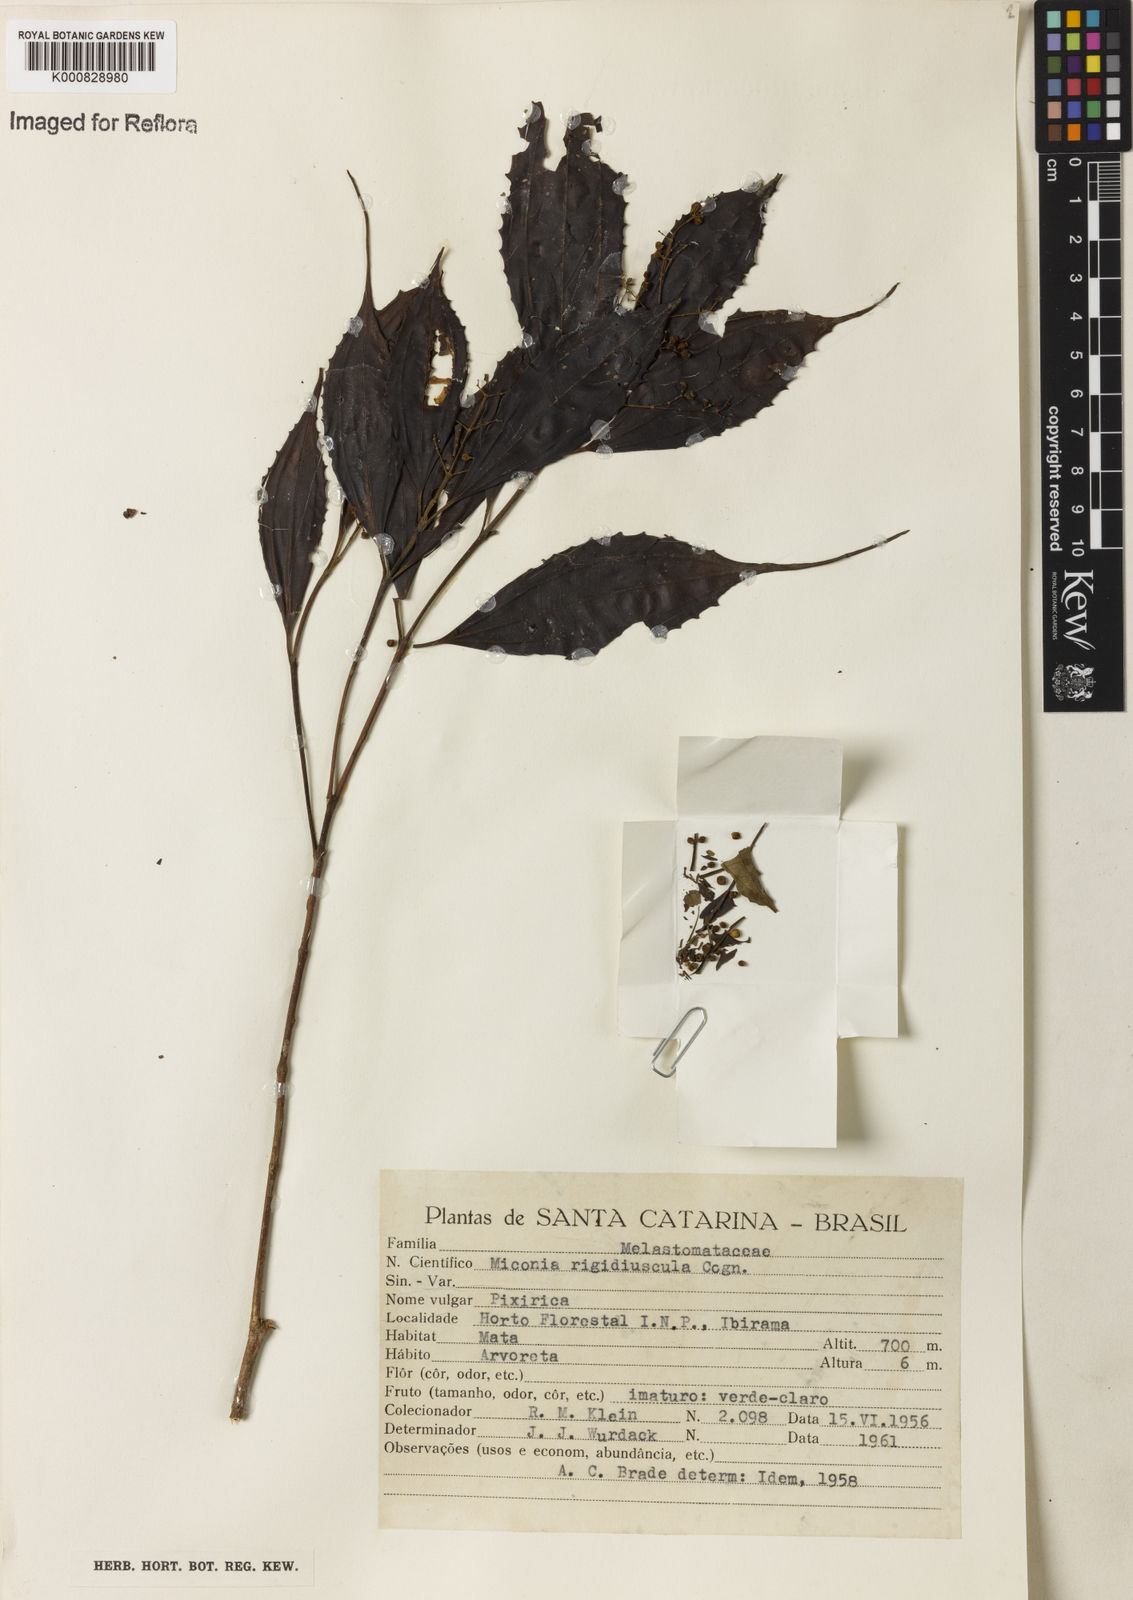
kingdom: Plantae
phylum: Tracheophyta
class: Magnoliopsida
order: Myrtales
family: Melastomataceae
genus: Miconia
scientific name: Miconia pusilliflora
